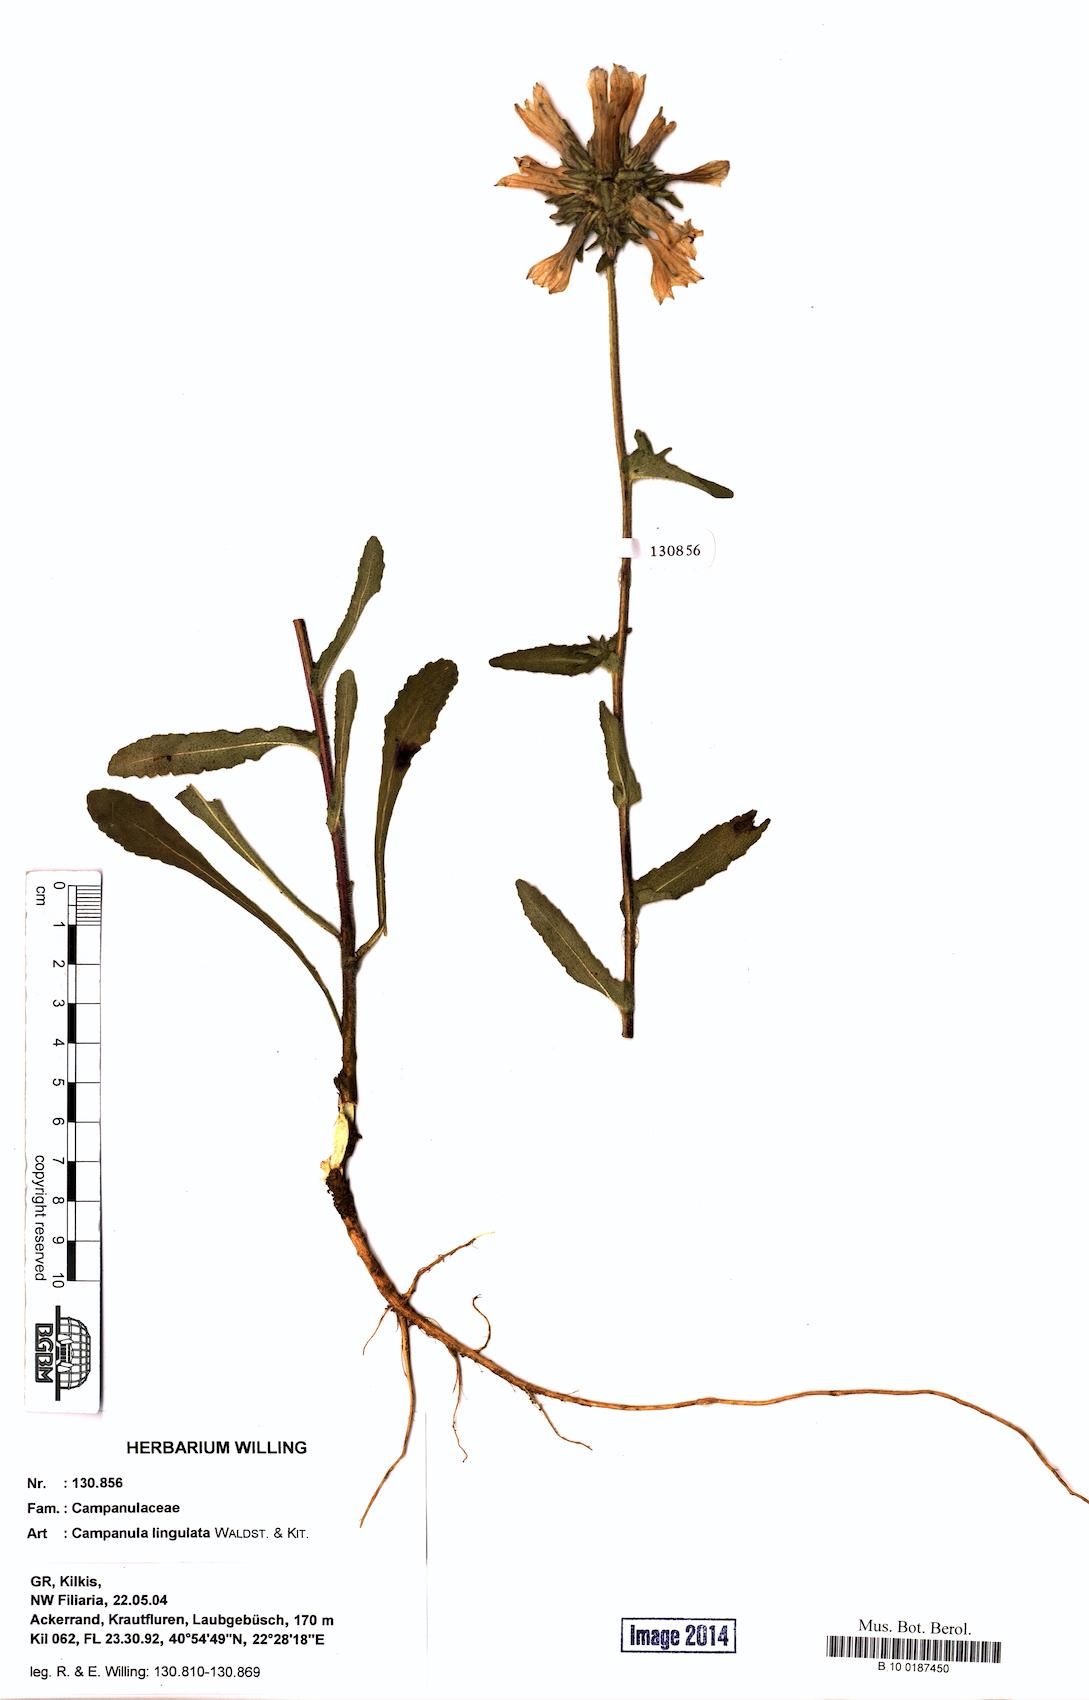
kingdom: Plantae
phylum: Tracheophyta
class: Magnoliopsida
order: Asterales
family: Campanulaceae
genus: Campanula
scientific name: Campanula lingulata
